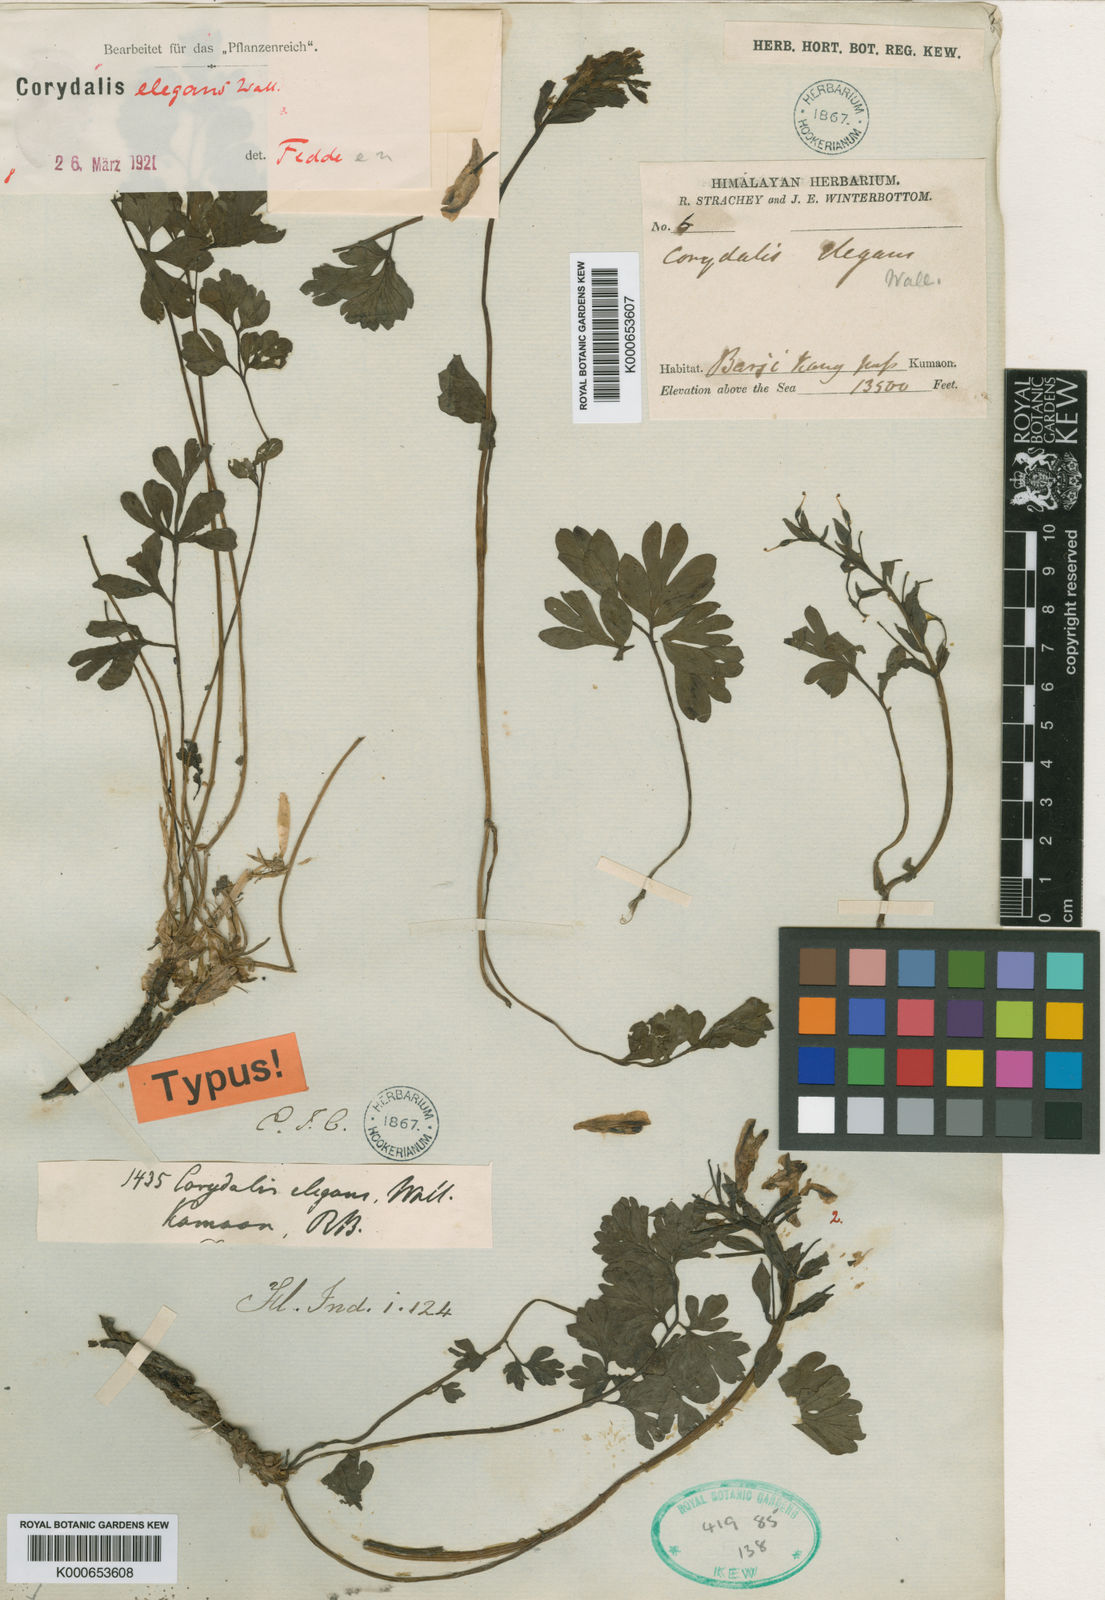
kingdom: Plantae
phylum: Tracheophyta
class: Magnoliopsida
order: Ranunculales
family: Papaveraceae
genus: Corydalis
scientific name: Corydalis elegans
